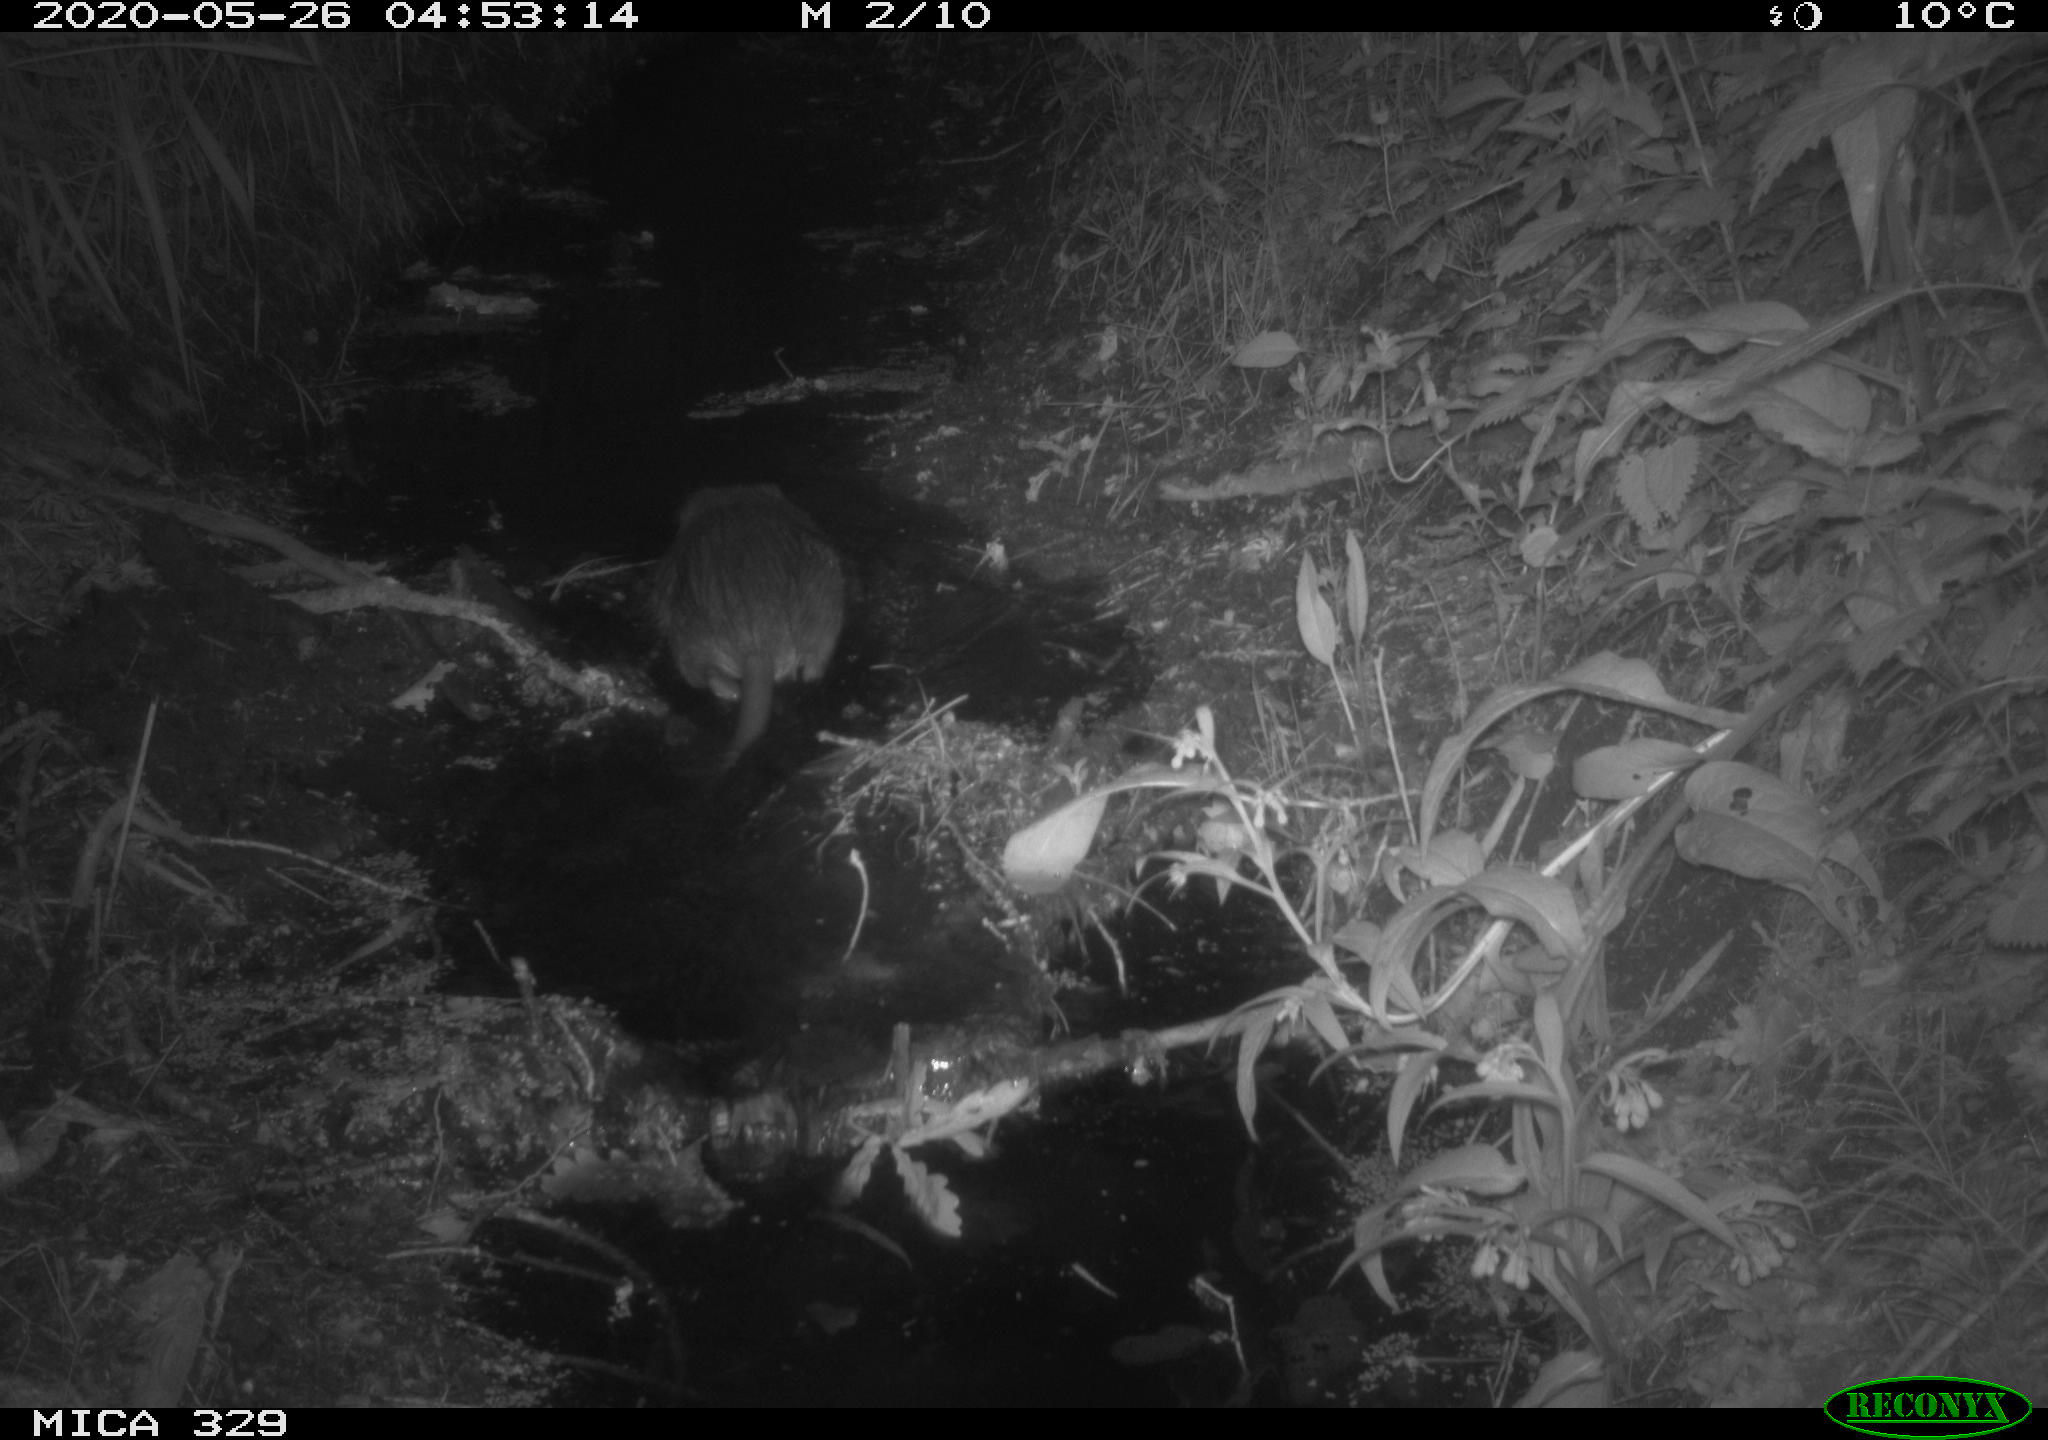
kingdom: Animalia
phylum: Chordata
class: Mammalia
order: Rodentia
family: Myocastoridae
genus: Myocastor
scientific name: Myocastor coypus
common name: Coypu
